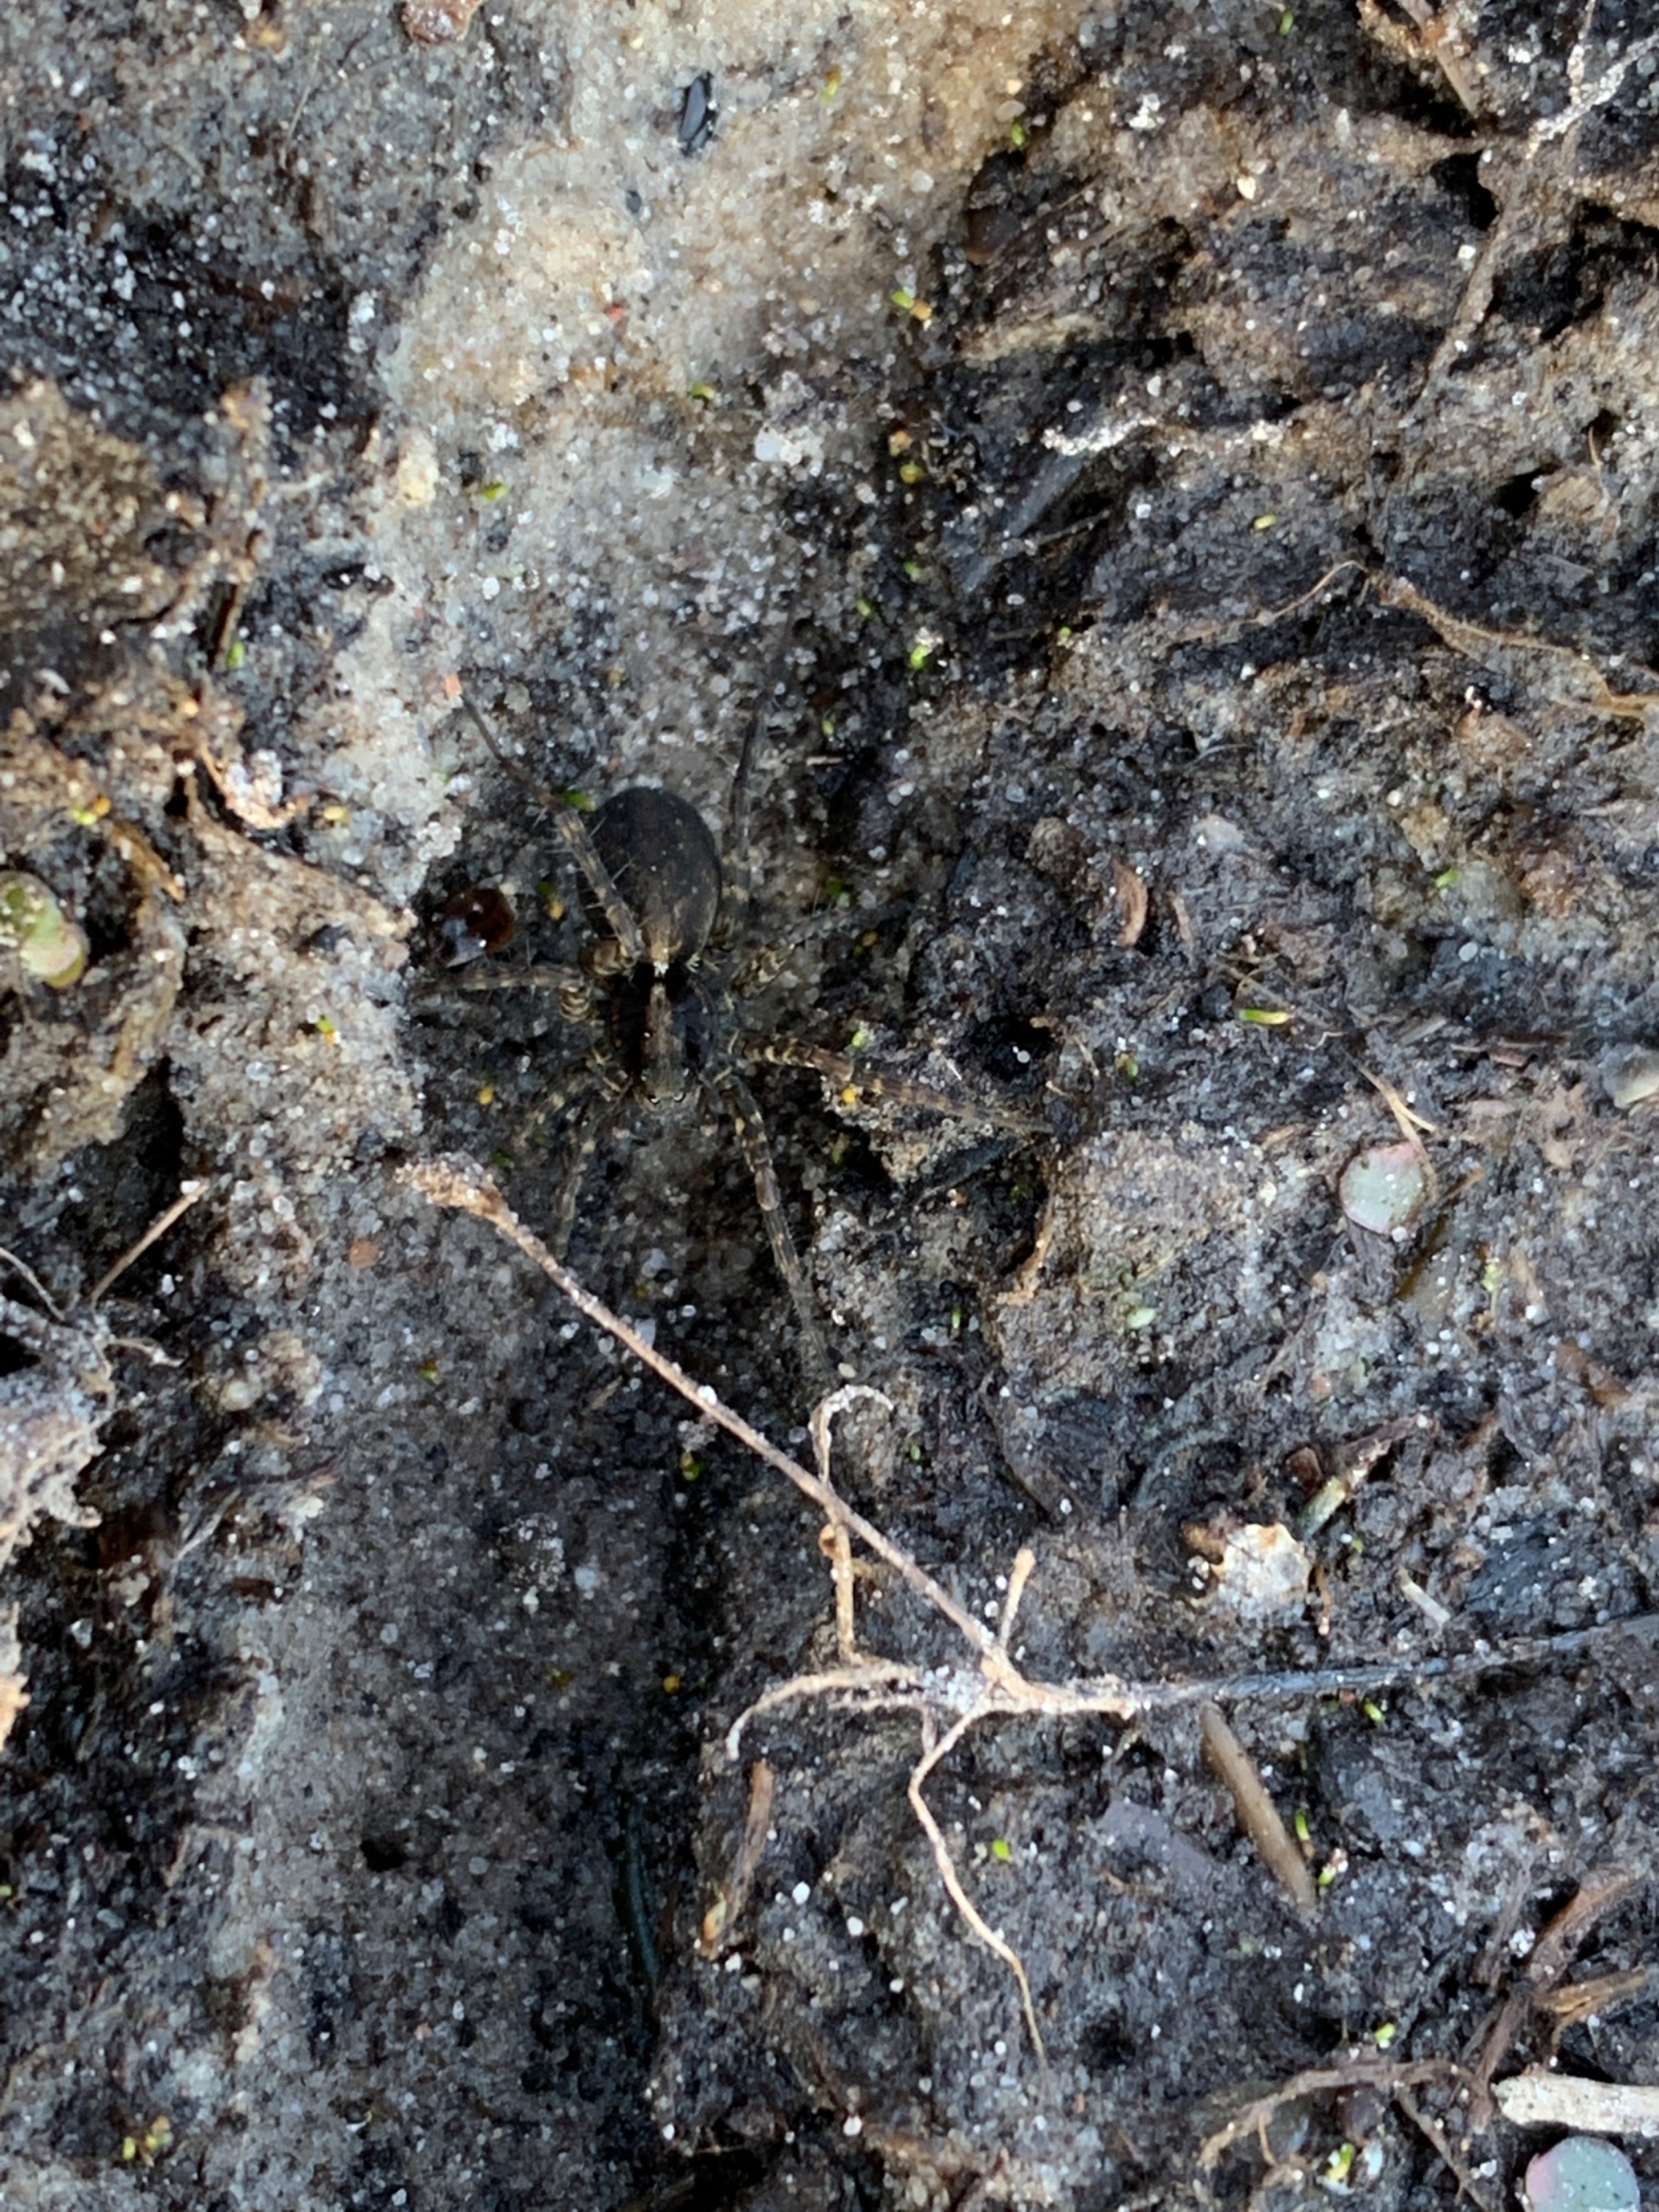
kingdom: Animalia
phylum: Arthropoda
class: Arachnida
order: Araneae
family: Lycosidae
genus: Pardosa
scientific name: Pardosa
